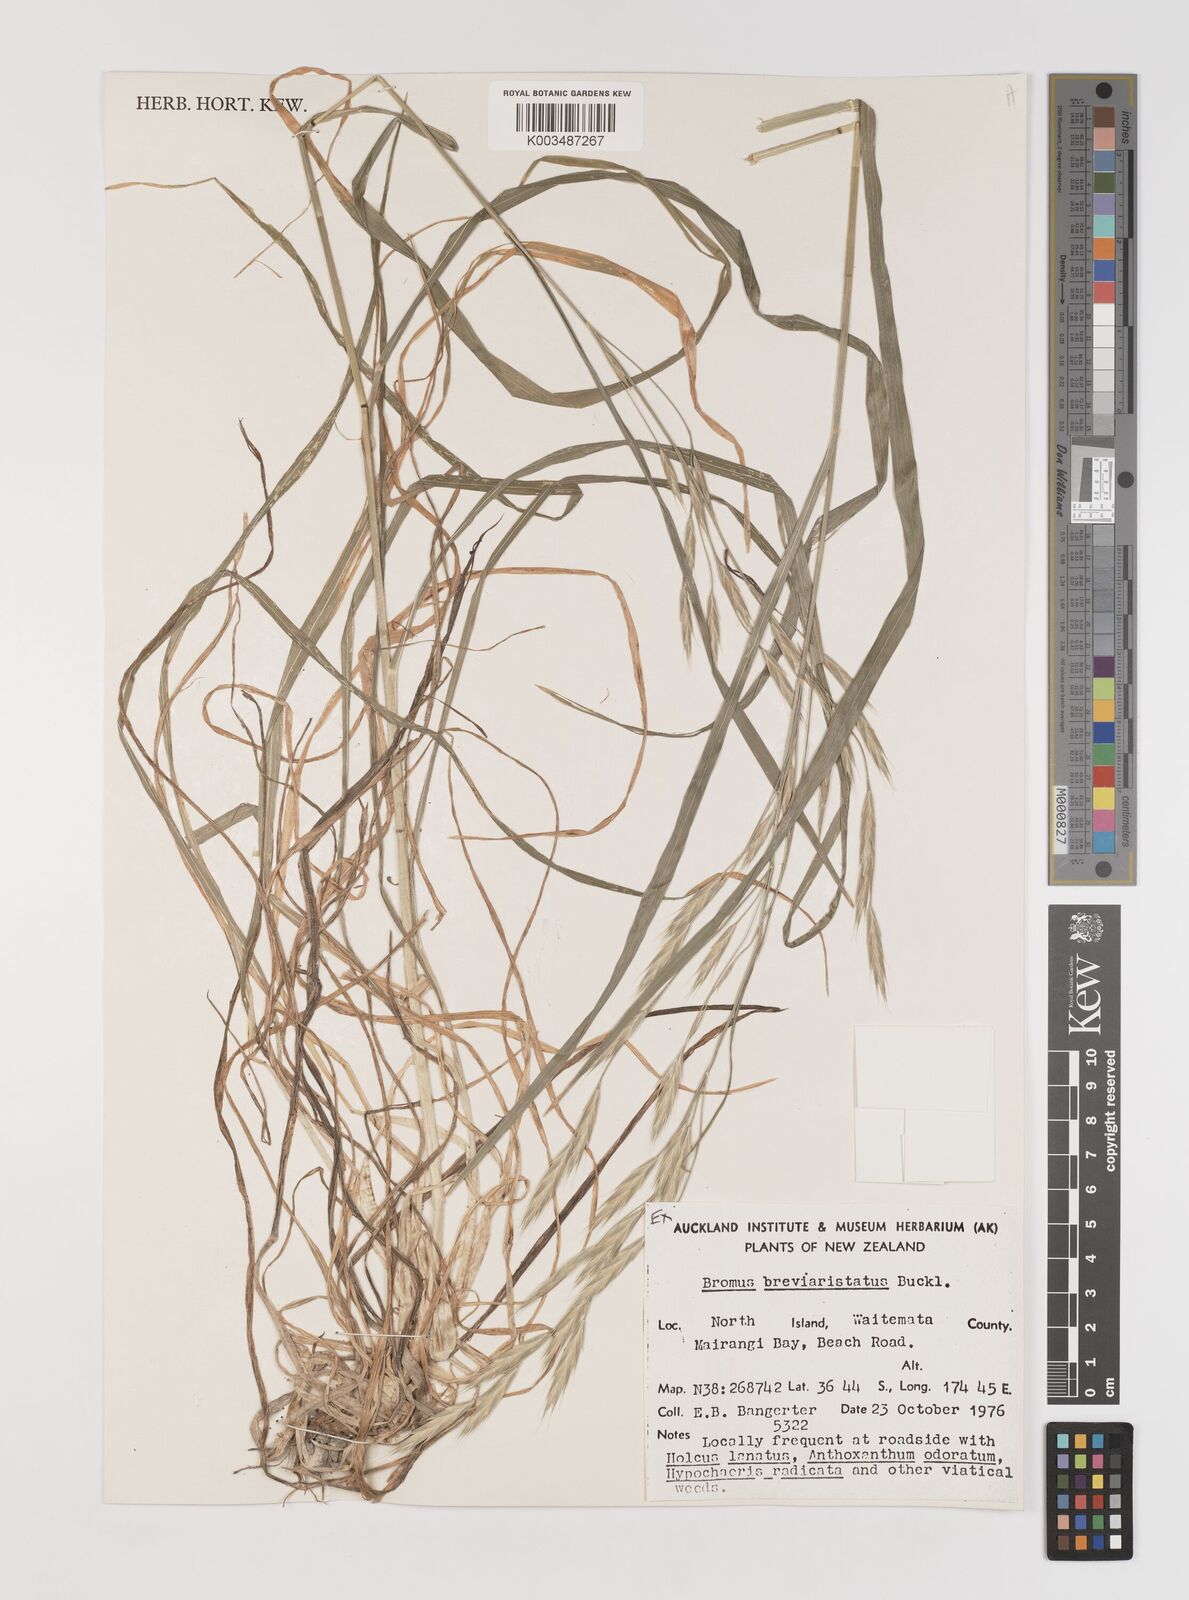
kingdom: Plantae
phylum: Tracheophyta
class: Liliopsida
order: Poales
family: Poaceae
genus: Bromus
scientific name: Bromus marginatus
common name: Western brome
